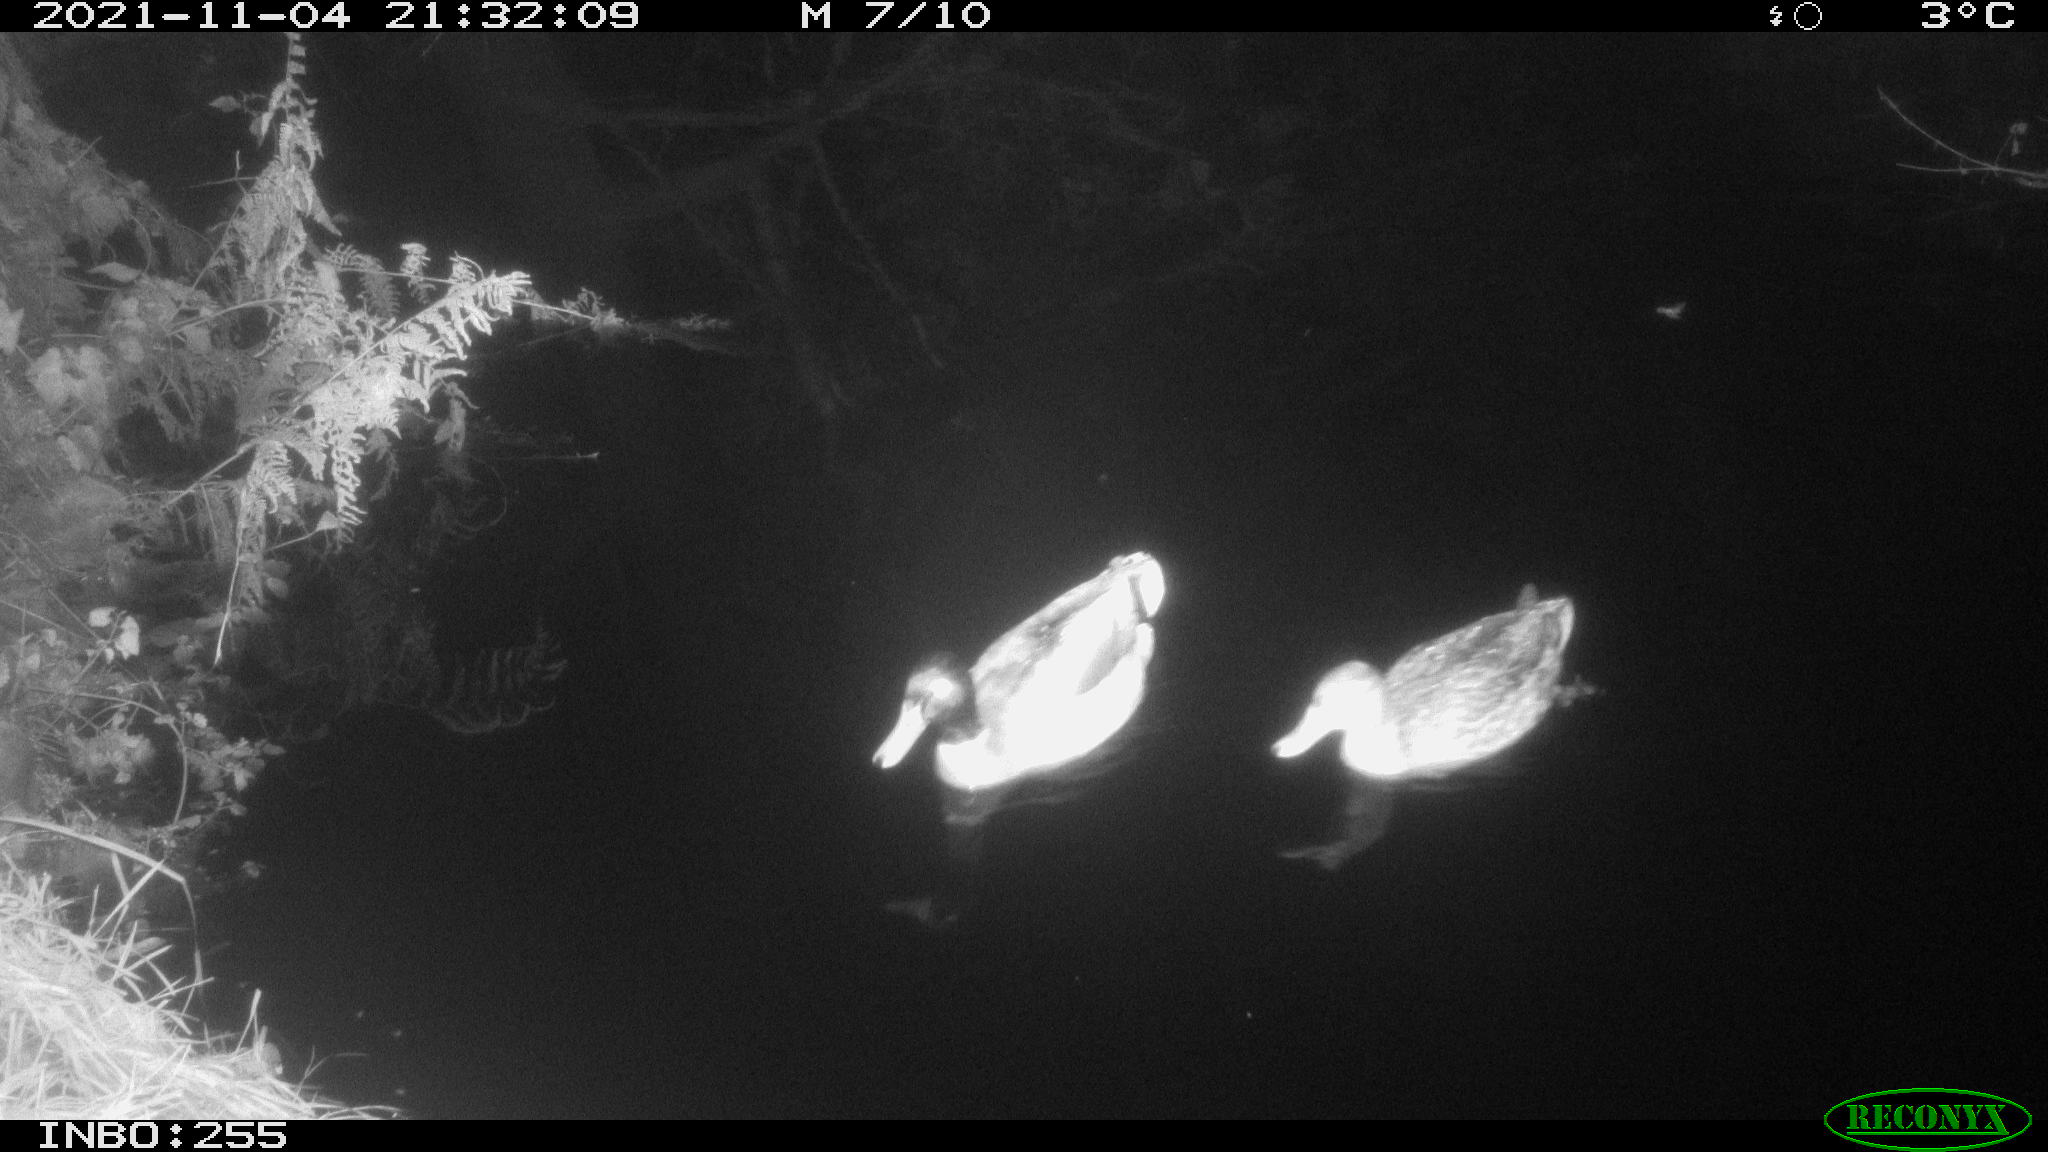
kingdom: Animalia
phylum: Chordata
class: Aves
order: Anseriformes
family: Anatidae
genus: Anas
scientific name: Anas platyrhynchos
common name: Mallard
